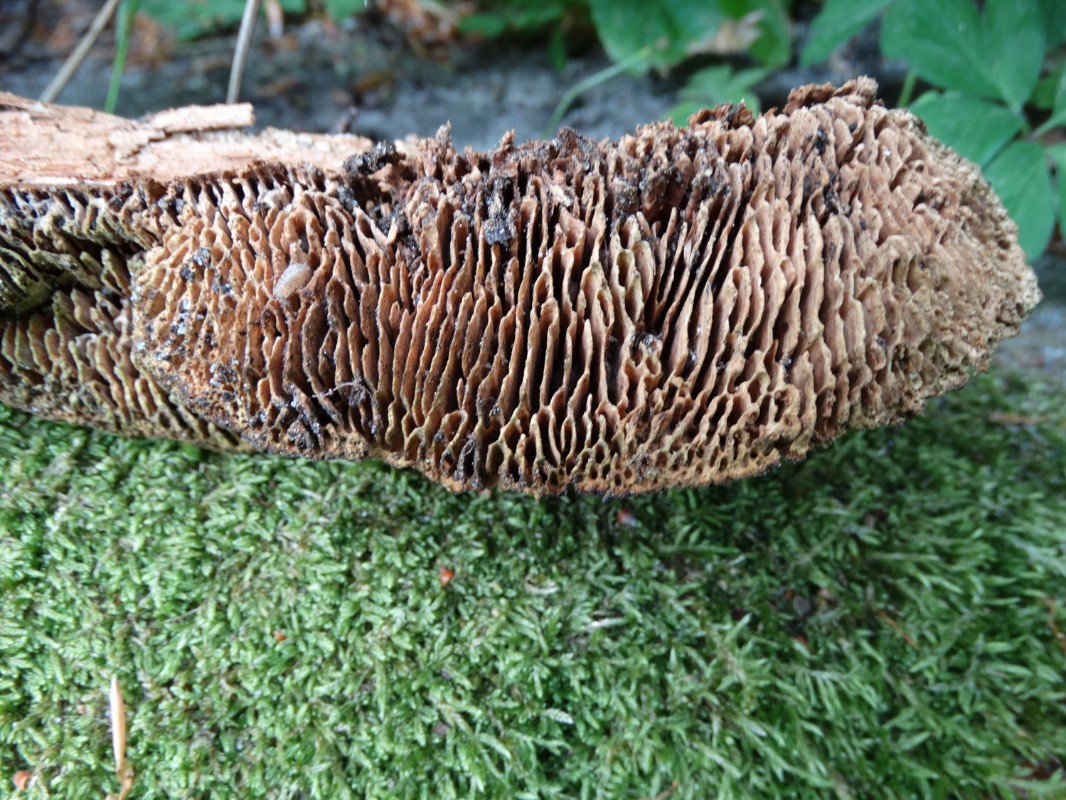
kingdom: Fungi
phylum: Basidiomycota
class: Agaricomycetes
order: Polyporales
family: Fomitopsidaceae
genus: Daedalea
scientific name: Daedalea quercina
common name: ege-labyrintsvamp
